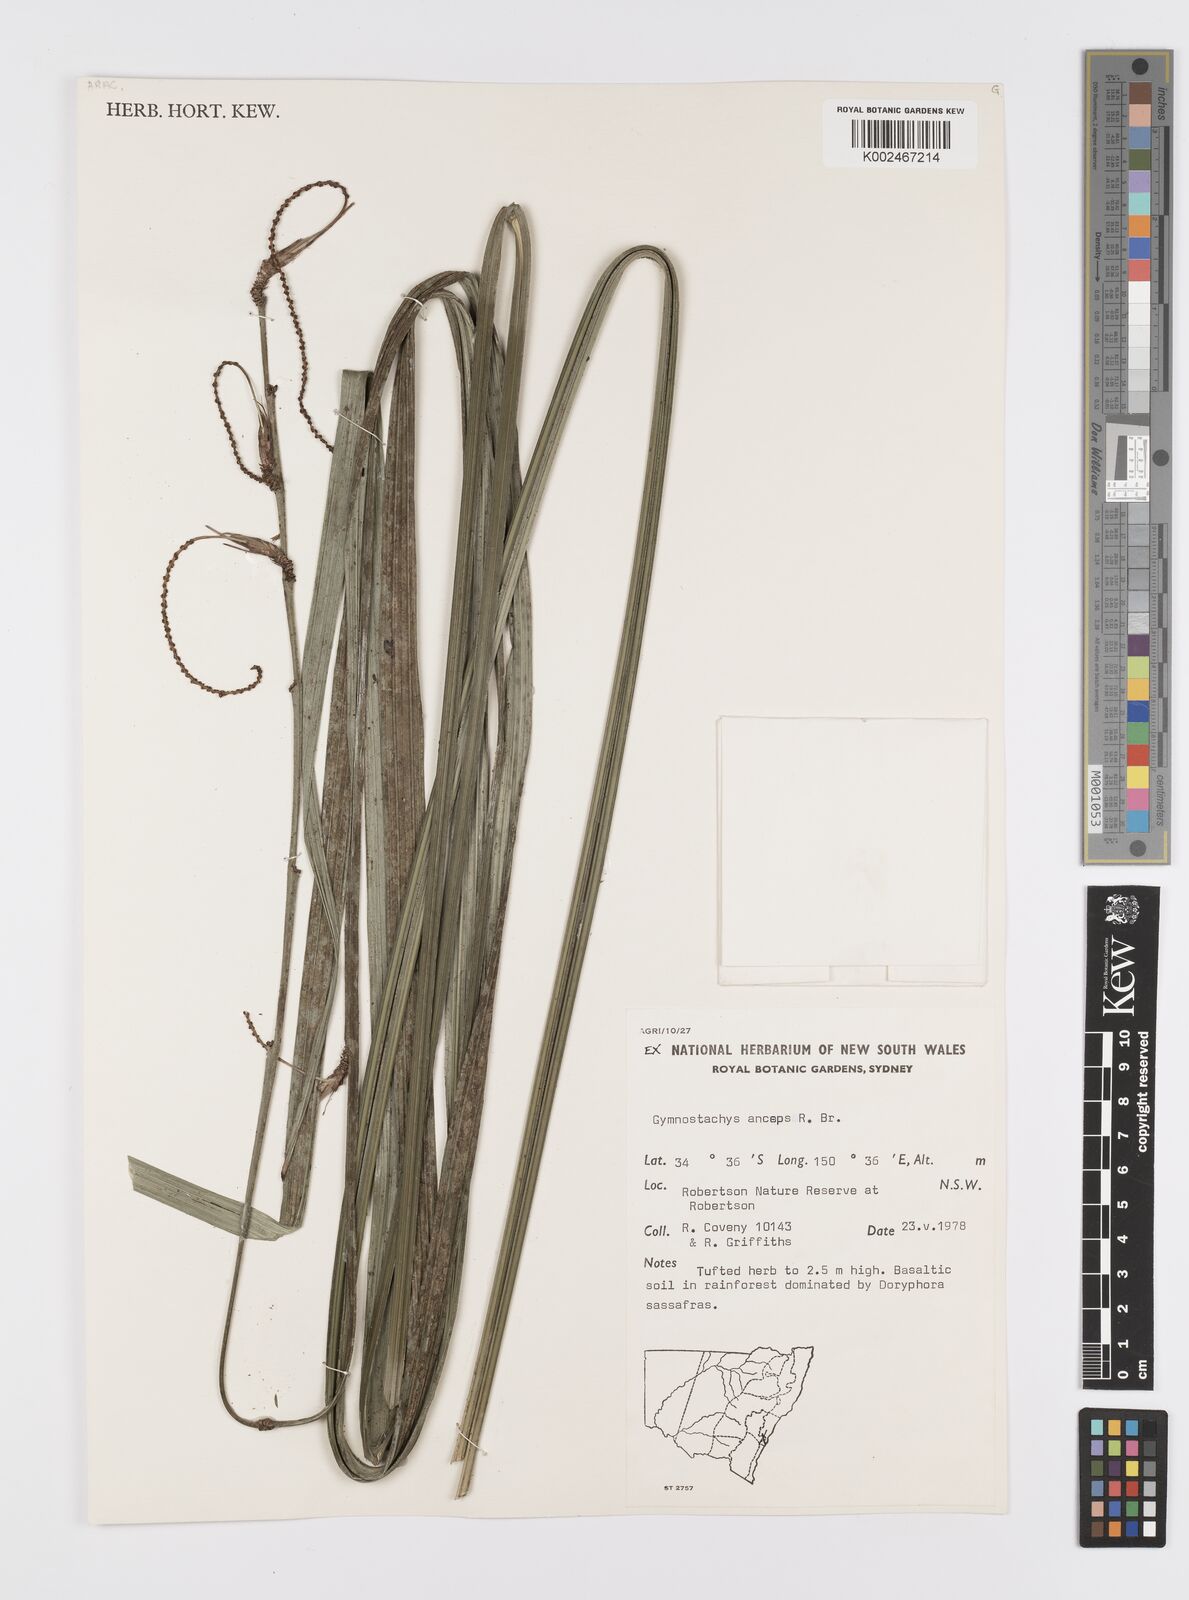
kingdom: Plantae
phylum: Tracheophyta
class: Liliopsida
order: Alismatales
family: Araceae
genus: Gymnostachys
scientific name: Gymnostachys anceps
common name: Settler's-flax
